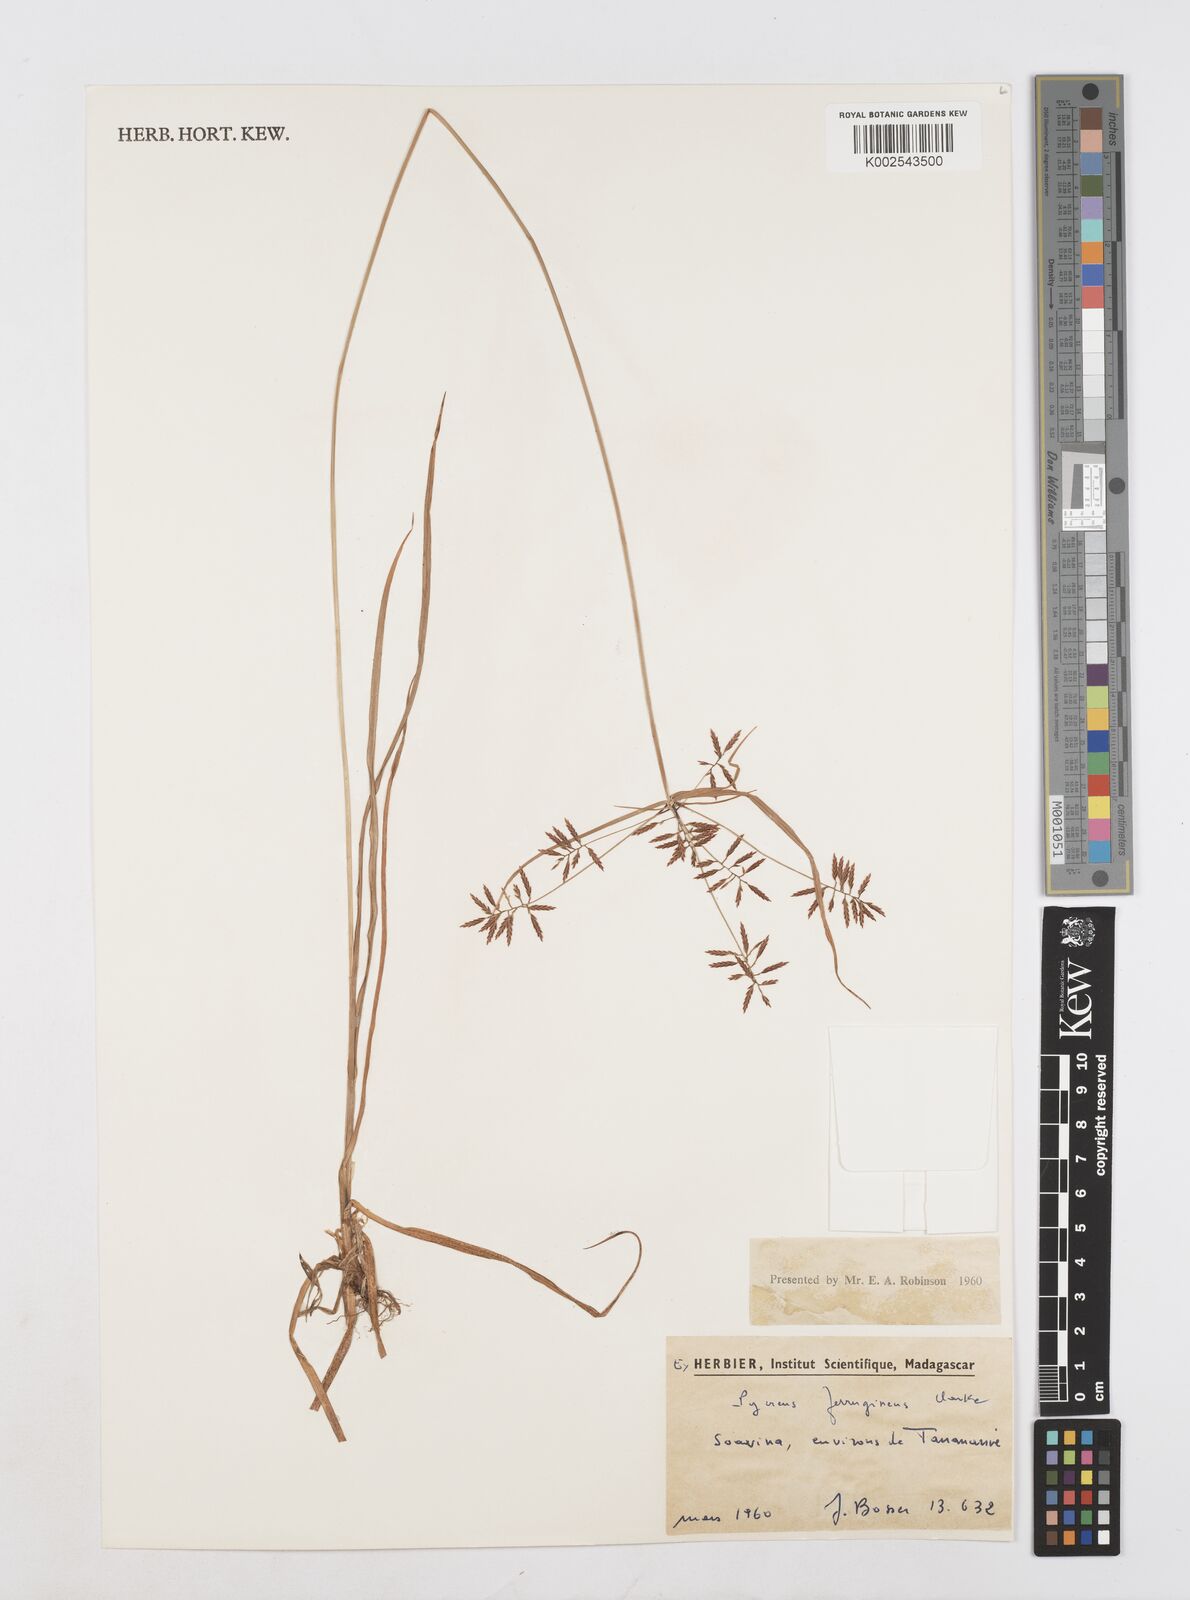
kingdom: Plantae
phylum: Tracheophyta
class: Liliopsida
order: Poales
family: Cyperaceae
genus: Cyperus
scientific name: Cyperus intactus
